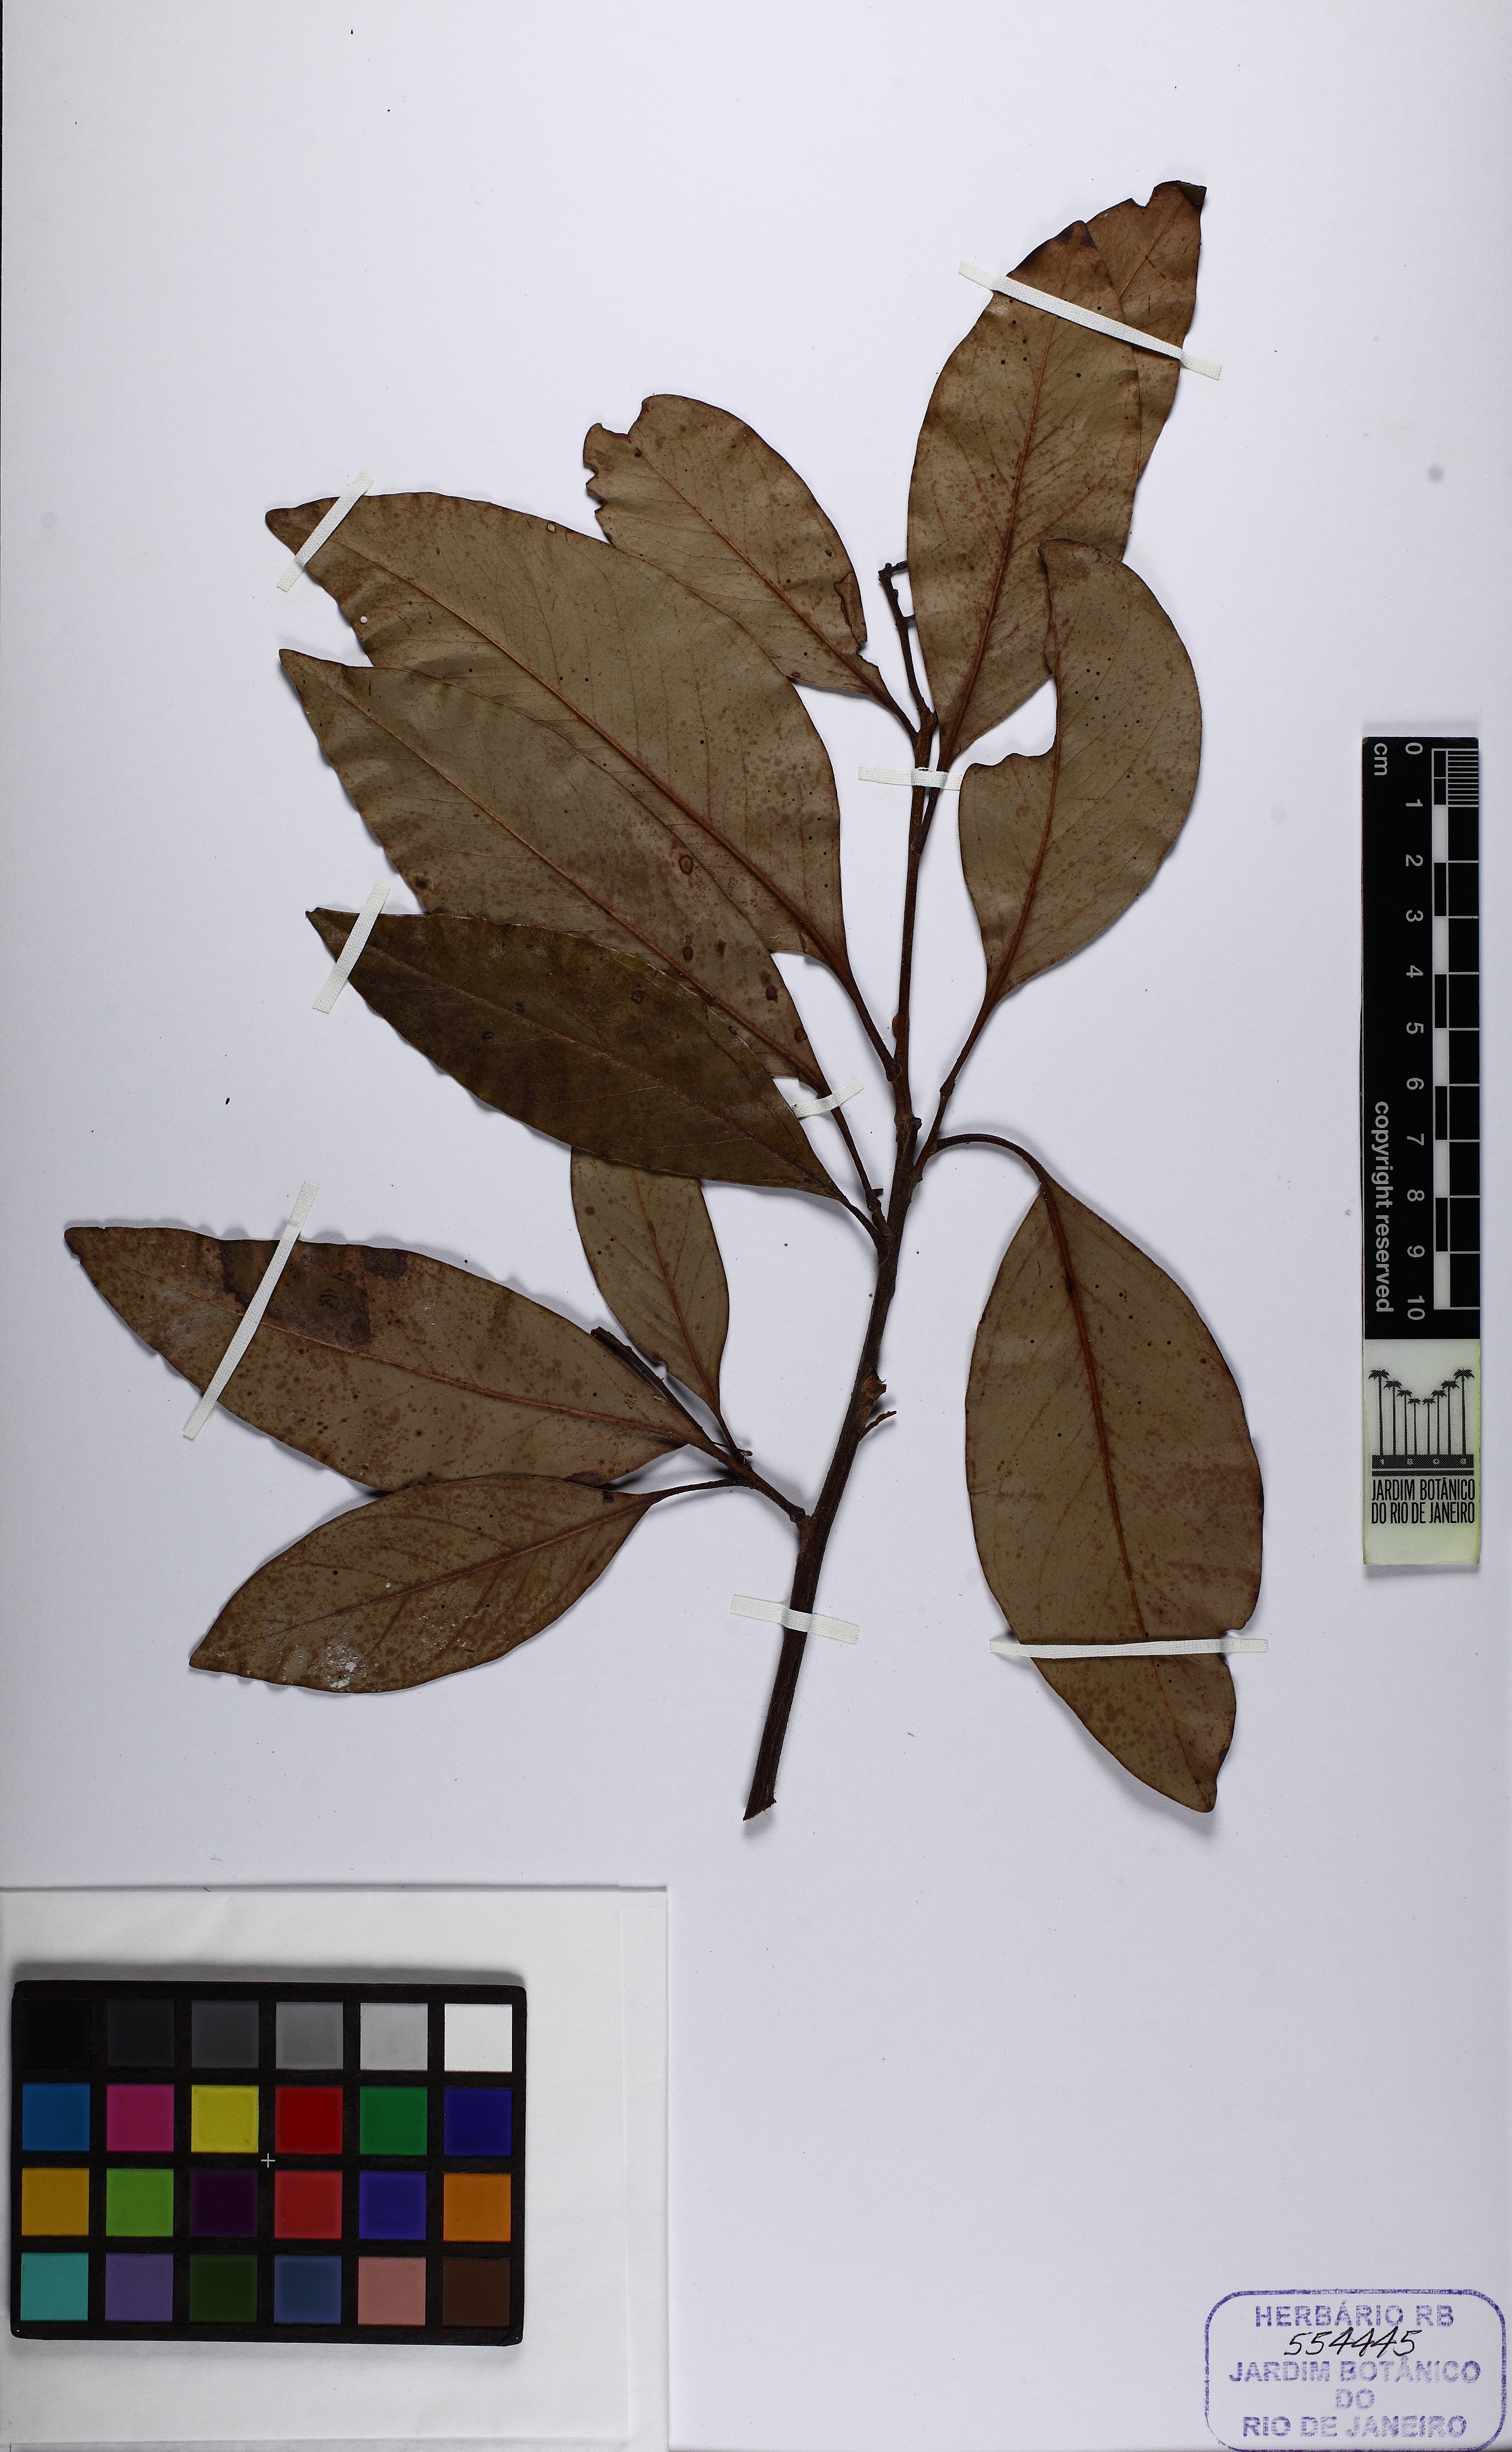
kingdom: Plantae
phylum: Tracheophyta
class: Magnoliopsida
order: Proteales
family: Proteaceae
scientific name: Proteaceae
